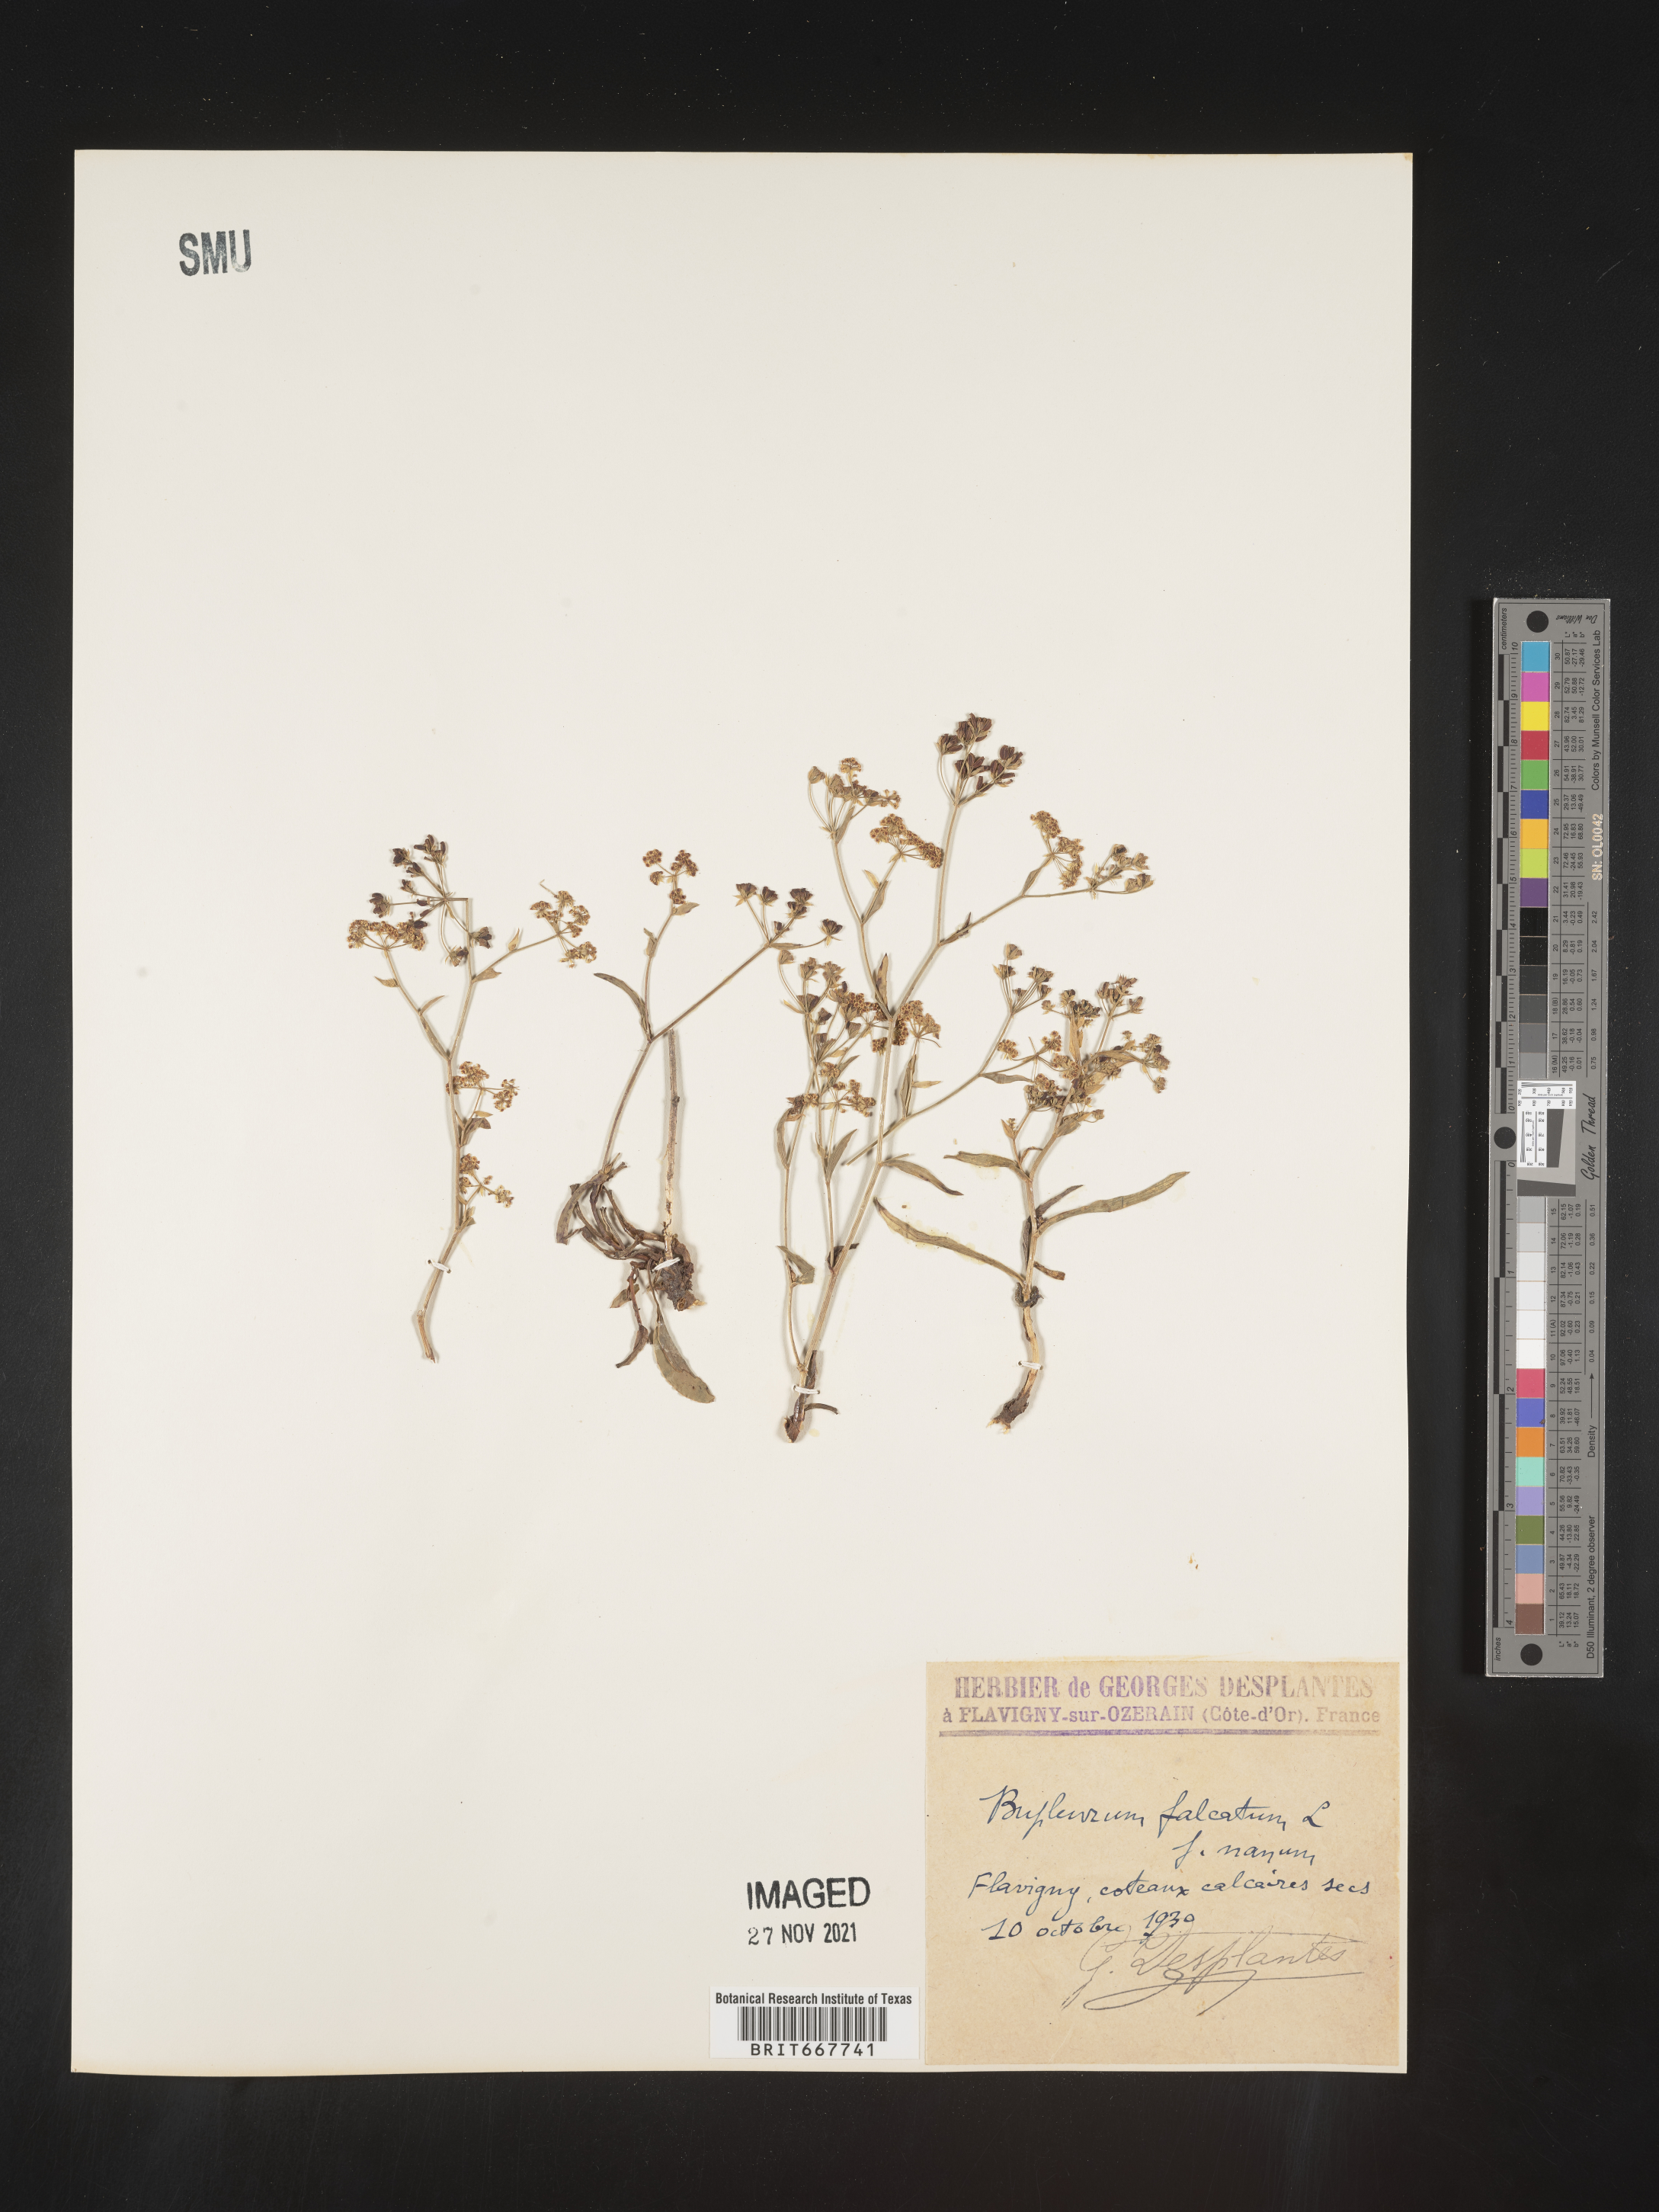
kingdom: Plantae
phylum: Tracheophyta
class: Magnoliopsida
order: Apiales
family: Apiaceae
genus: Bupleurum
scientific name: Bupleurum
